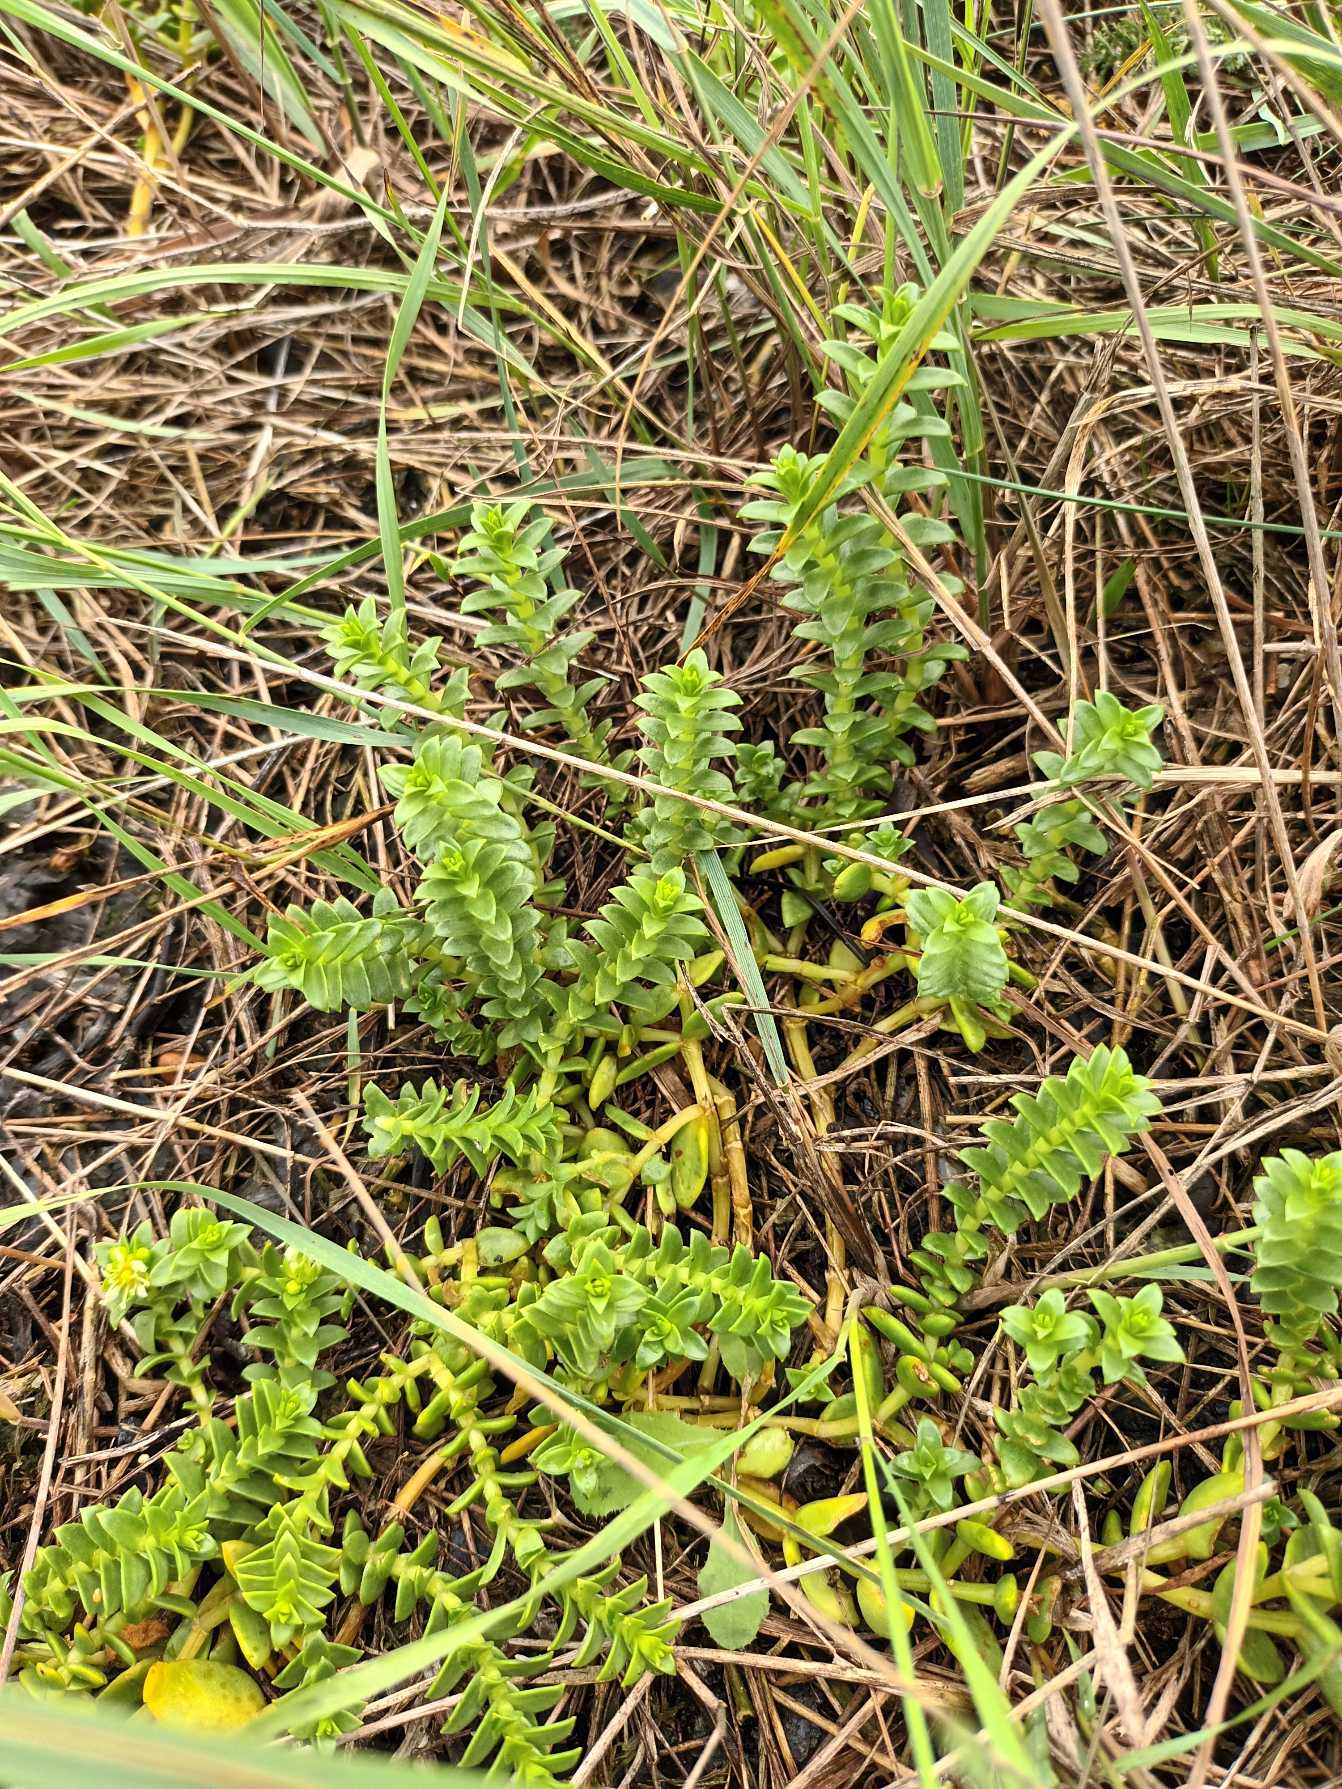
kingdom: Plantae
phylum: Tracheophyta
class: Magnoliopsida
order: Caryophyllales
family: Caryophyllaceae
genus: Honckenya
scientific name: Honckenya peploides
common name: Strandarve
